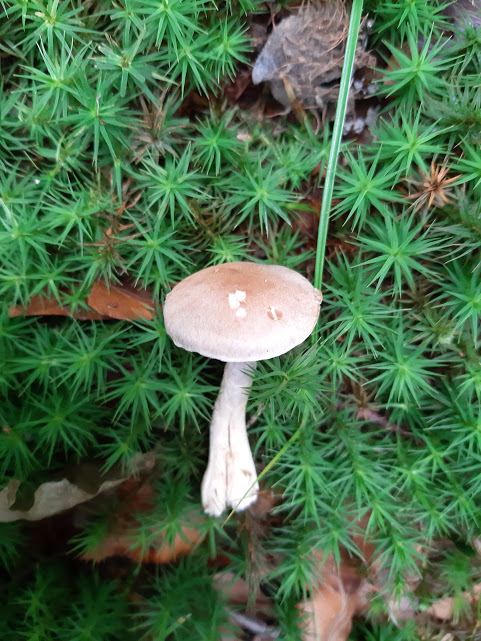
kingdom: Fungi
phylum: Basidiomycota
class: Agaricomycetes
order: Agaricales
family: Cortinariaceae
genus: Cortinarius
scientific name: Cortinarius
